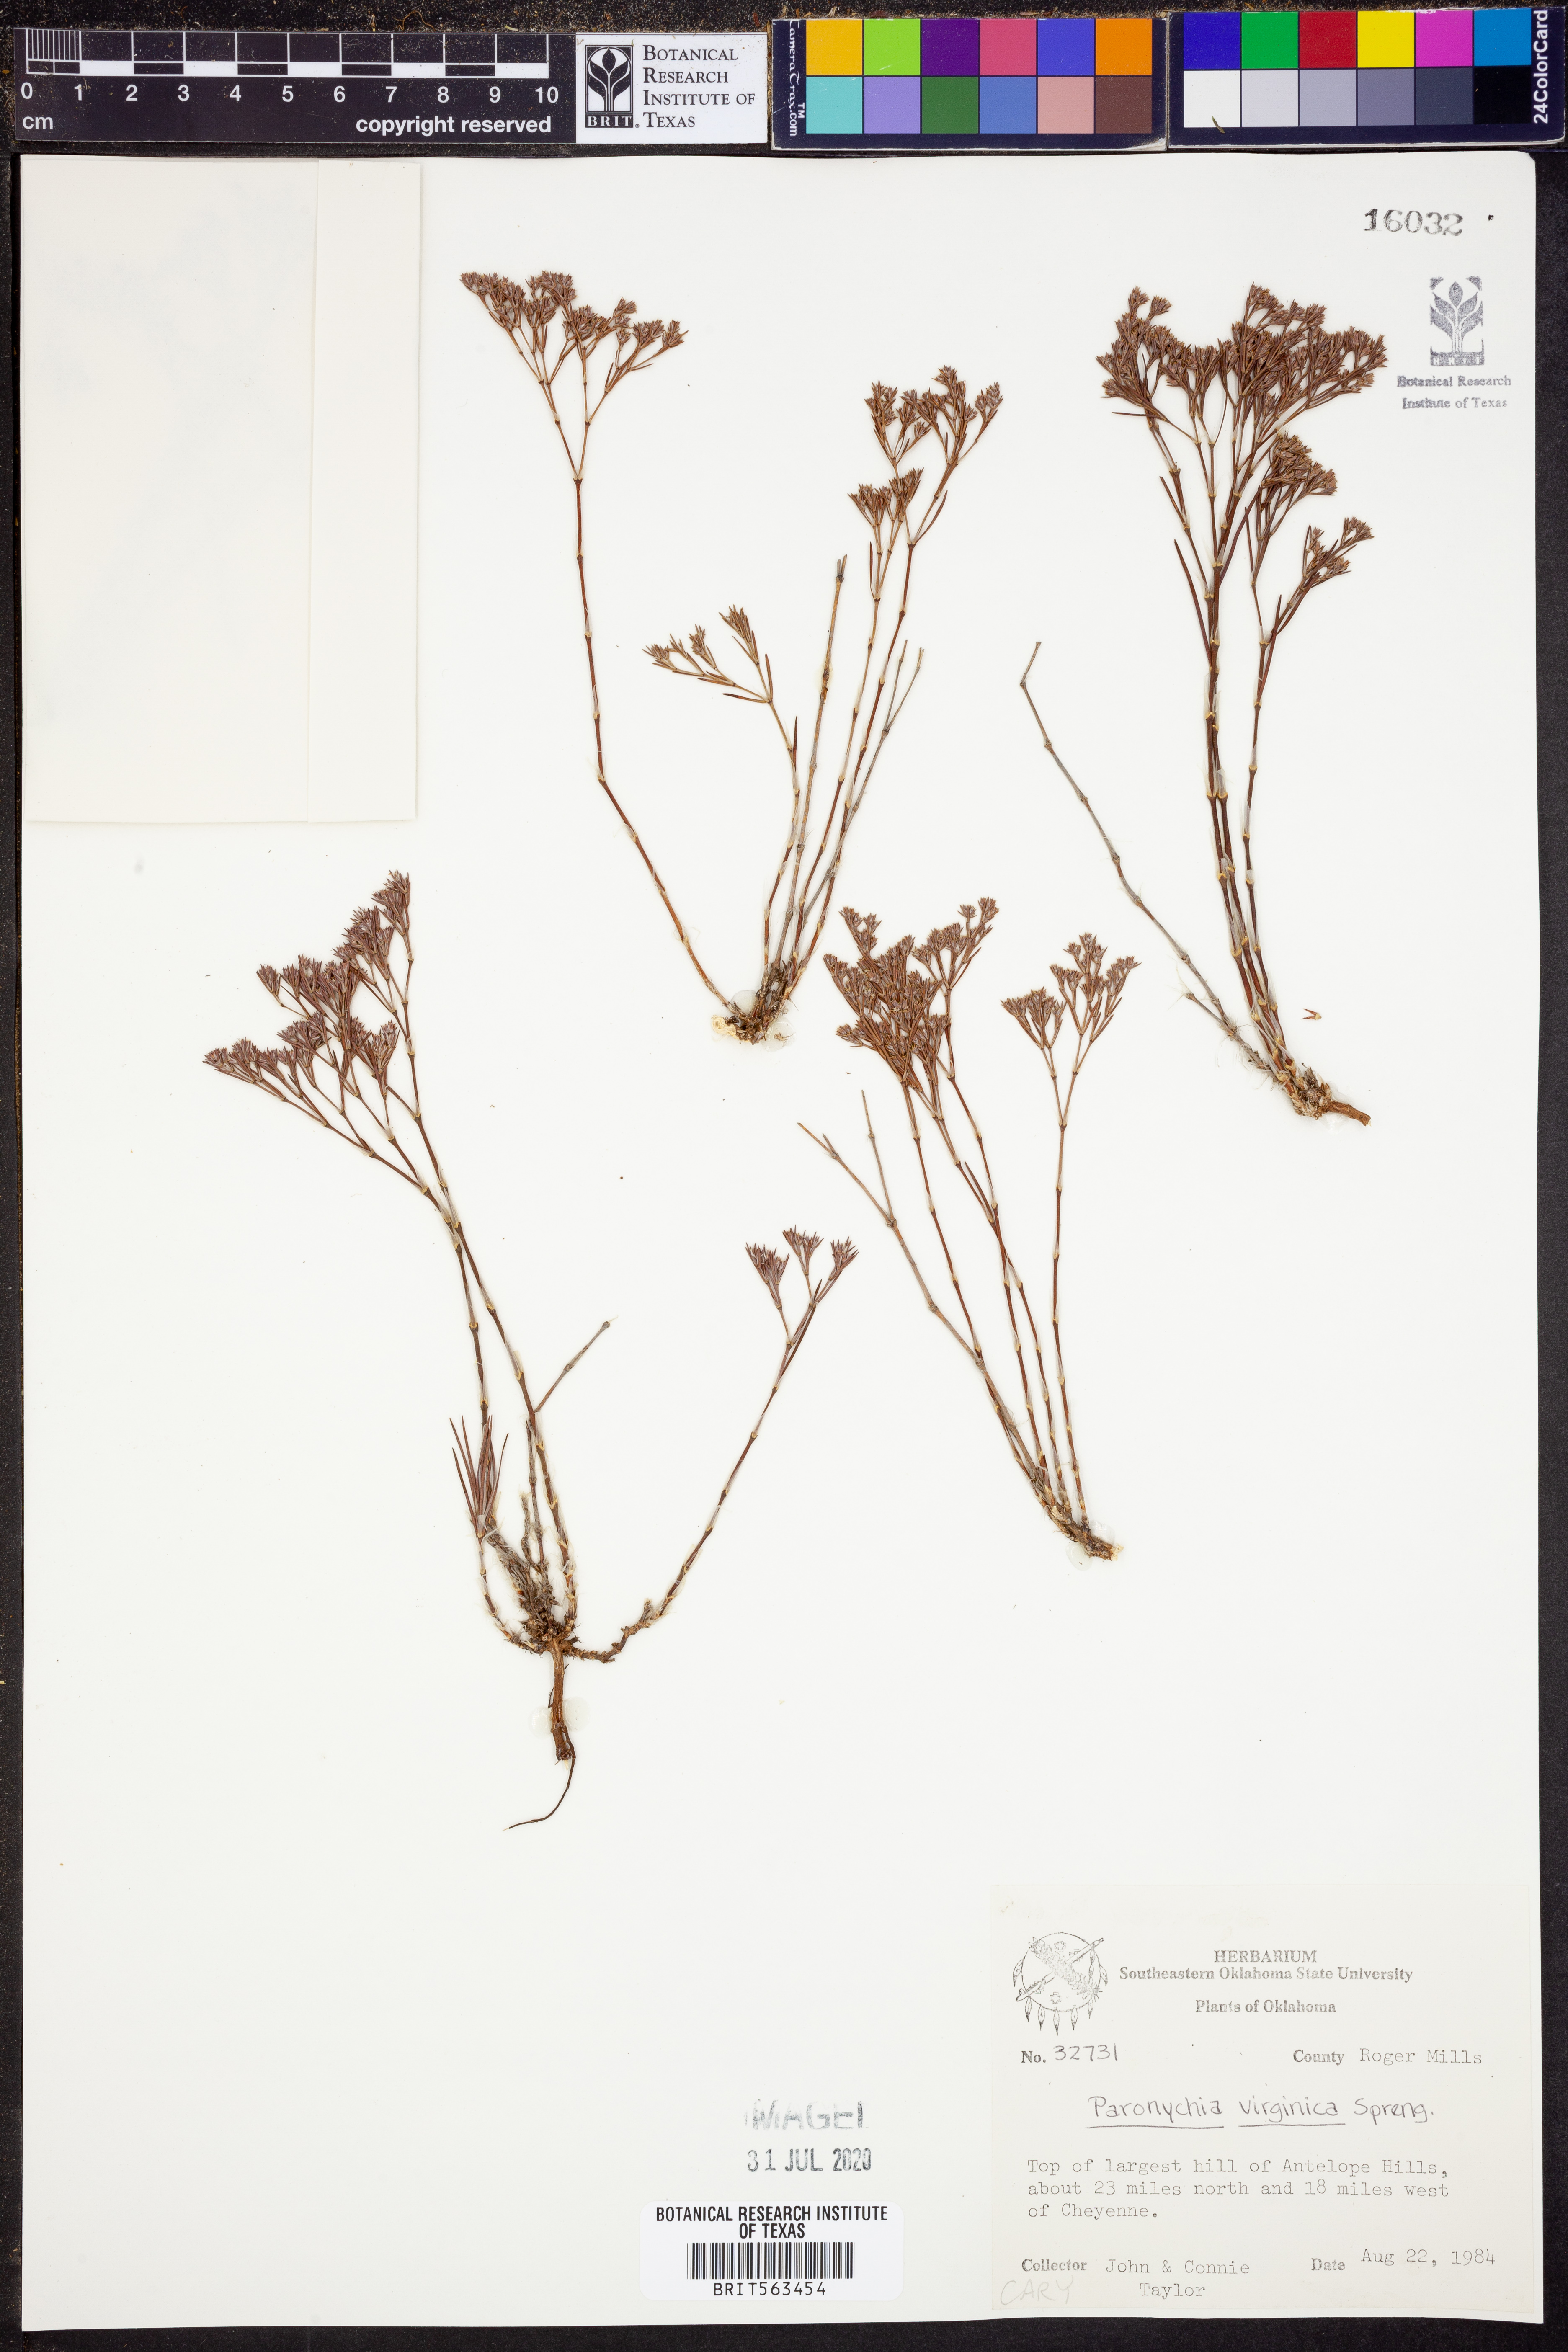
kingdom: Plantae
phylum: Tracheophyta
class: Magnoliopsida
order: Caryophyllales
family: Caryophyllaceae
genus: Paronychia
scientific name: Paronychia virginica
